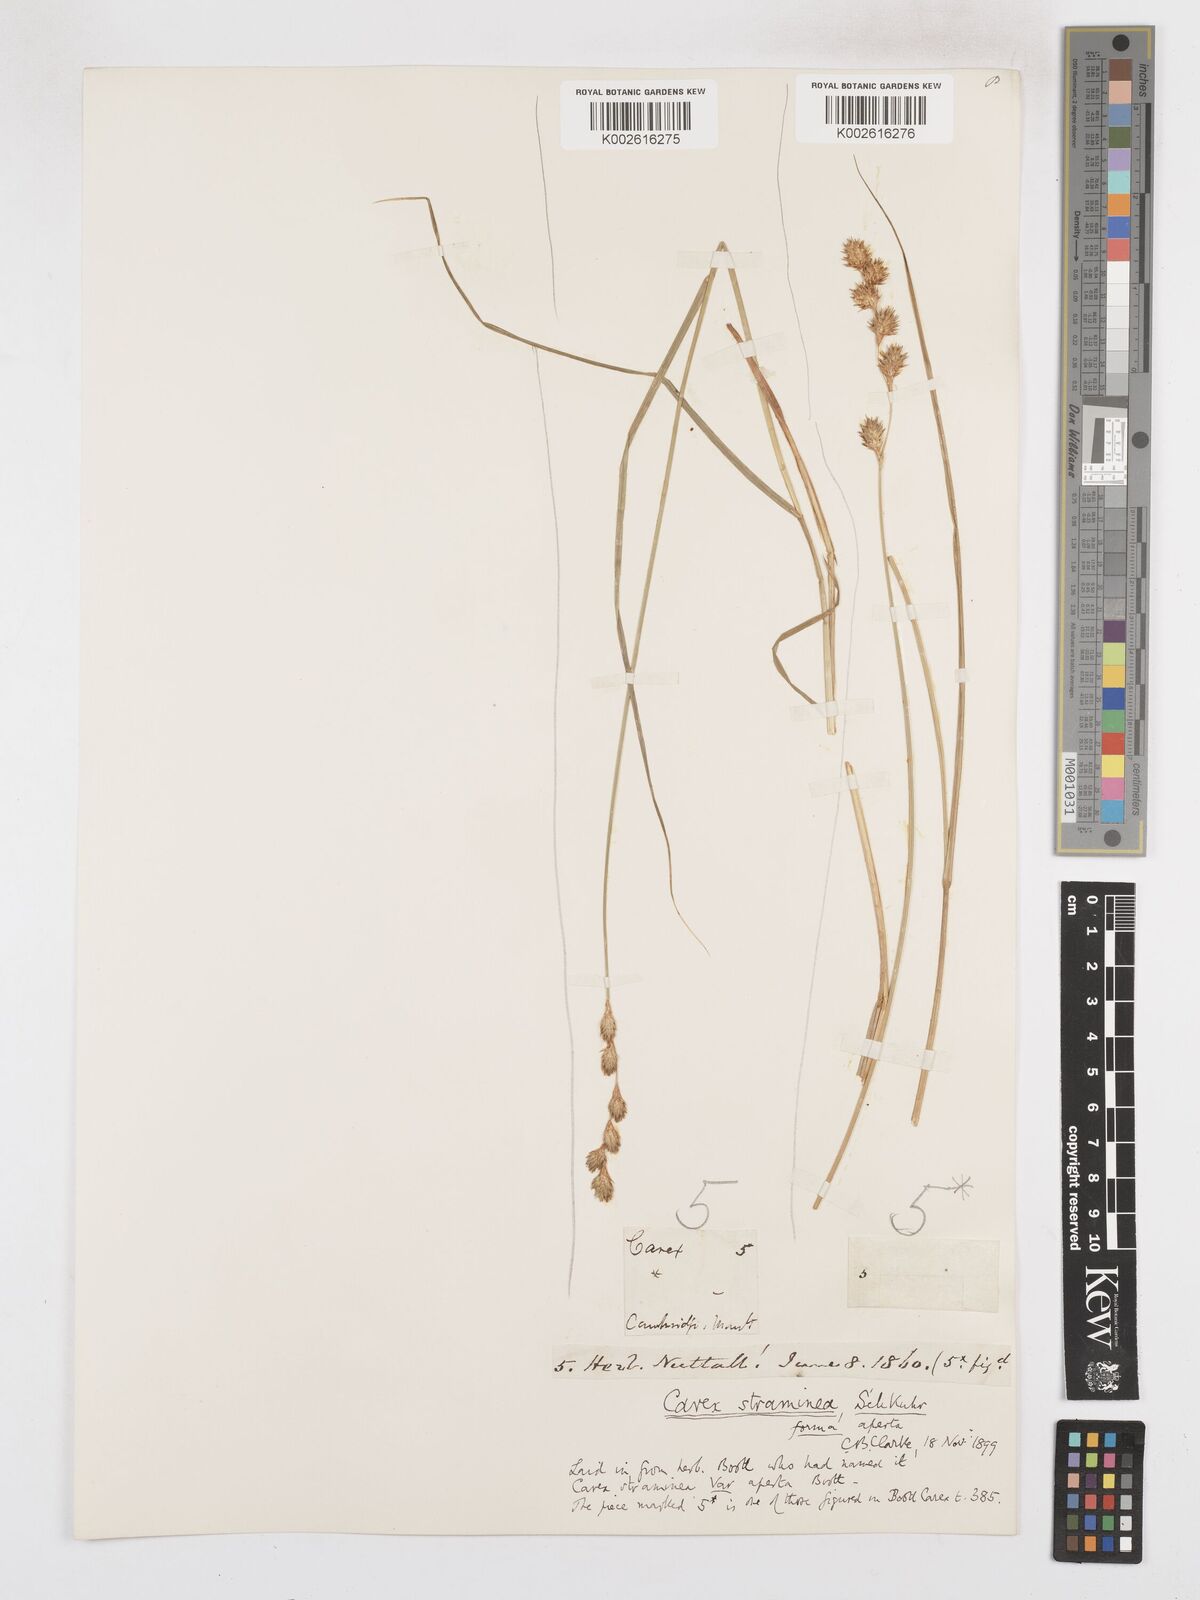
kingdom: Plantae
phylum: Tracheophyta
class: Liliopsida
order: Poales
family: Cyperaceae
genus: Carex
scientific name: Carex straminea
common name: Eastern straw sedge
